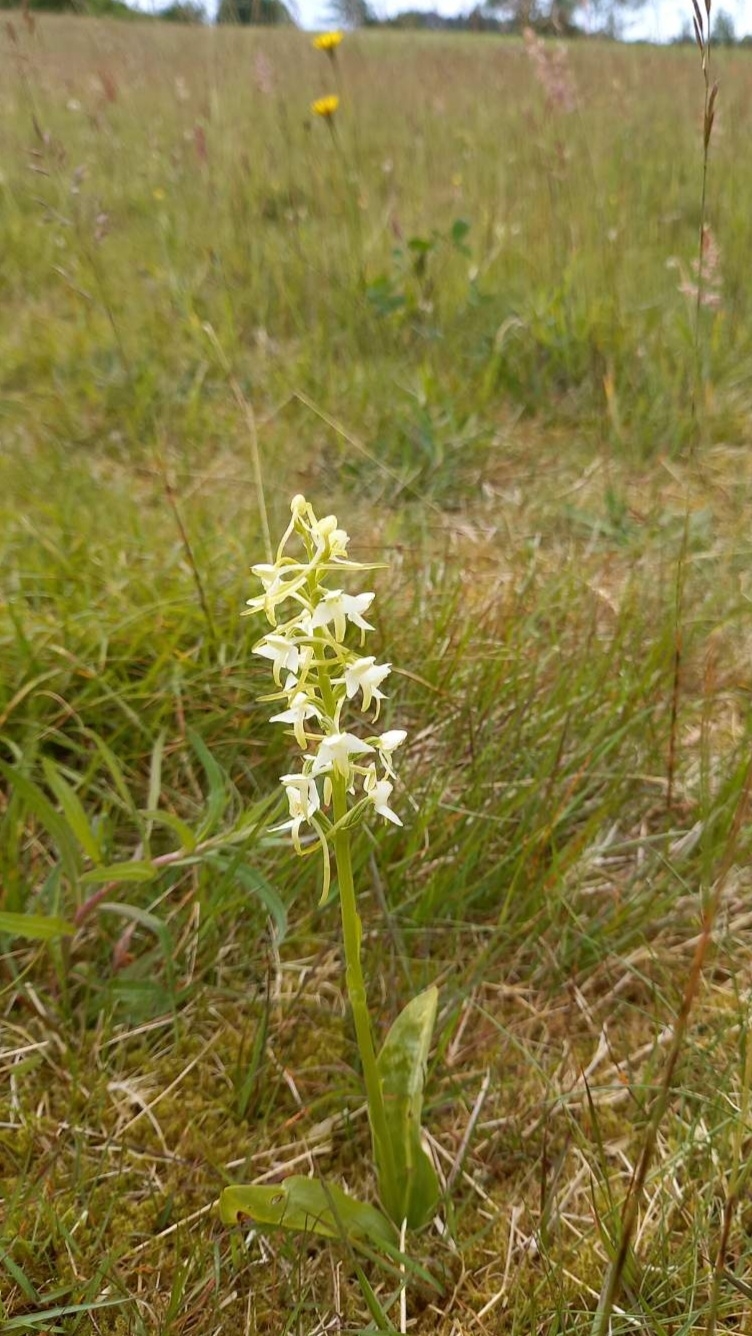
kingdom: Plantae
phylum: Tracheophyta
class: Liliopsida
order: Asparagales
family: Orchidaceae
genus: Platanthera
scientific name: Platanthera chlorantha
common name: Skov-gøgelilje
